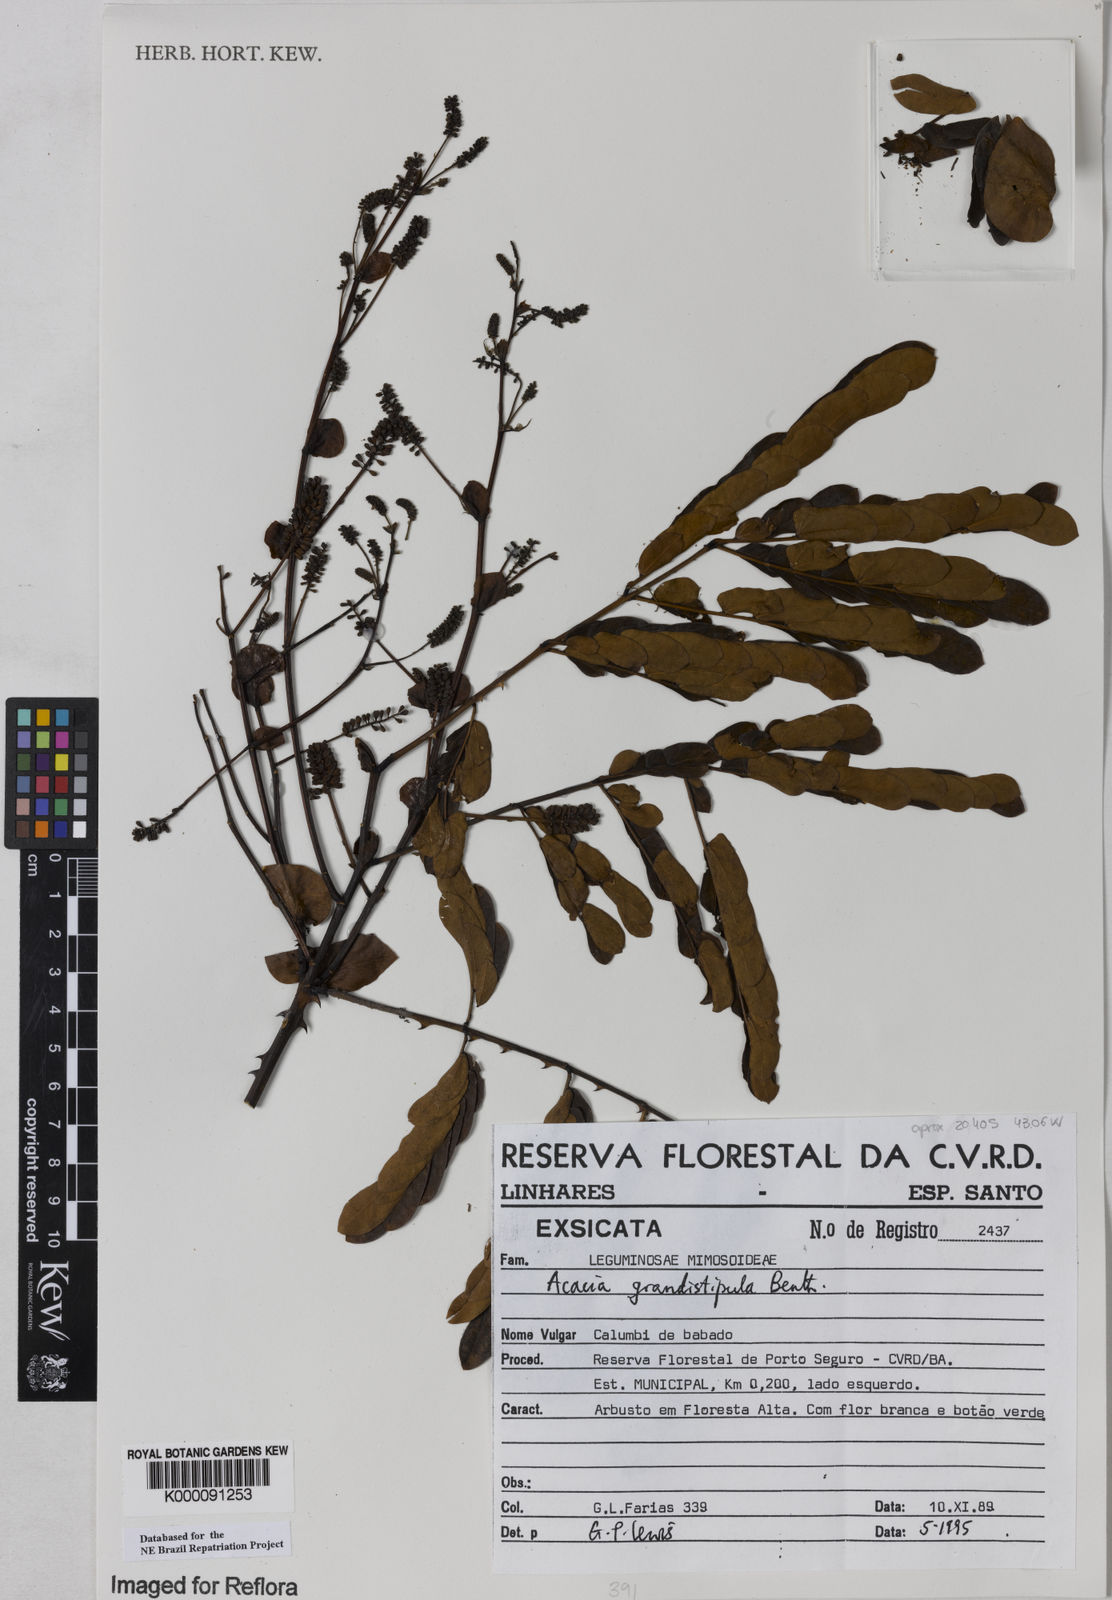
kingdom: Plantae
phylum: Tracheophyta
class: Magnoliopsida
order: Fabales
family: Fabaceae
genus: Senegalia
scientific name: Senegalia grandistipula
